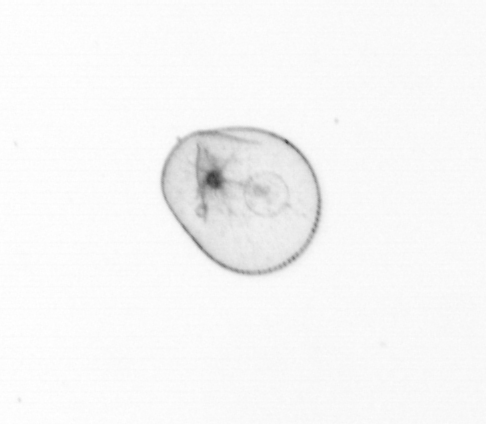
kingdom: Chromista
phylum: Myzozoa
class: Dinophyceae
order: Noctilucales
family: Noctilucaceae
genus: Noctiluca
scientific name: Noctiluca scintillans
